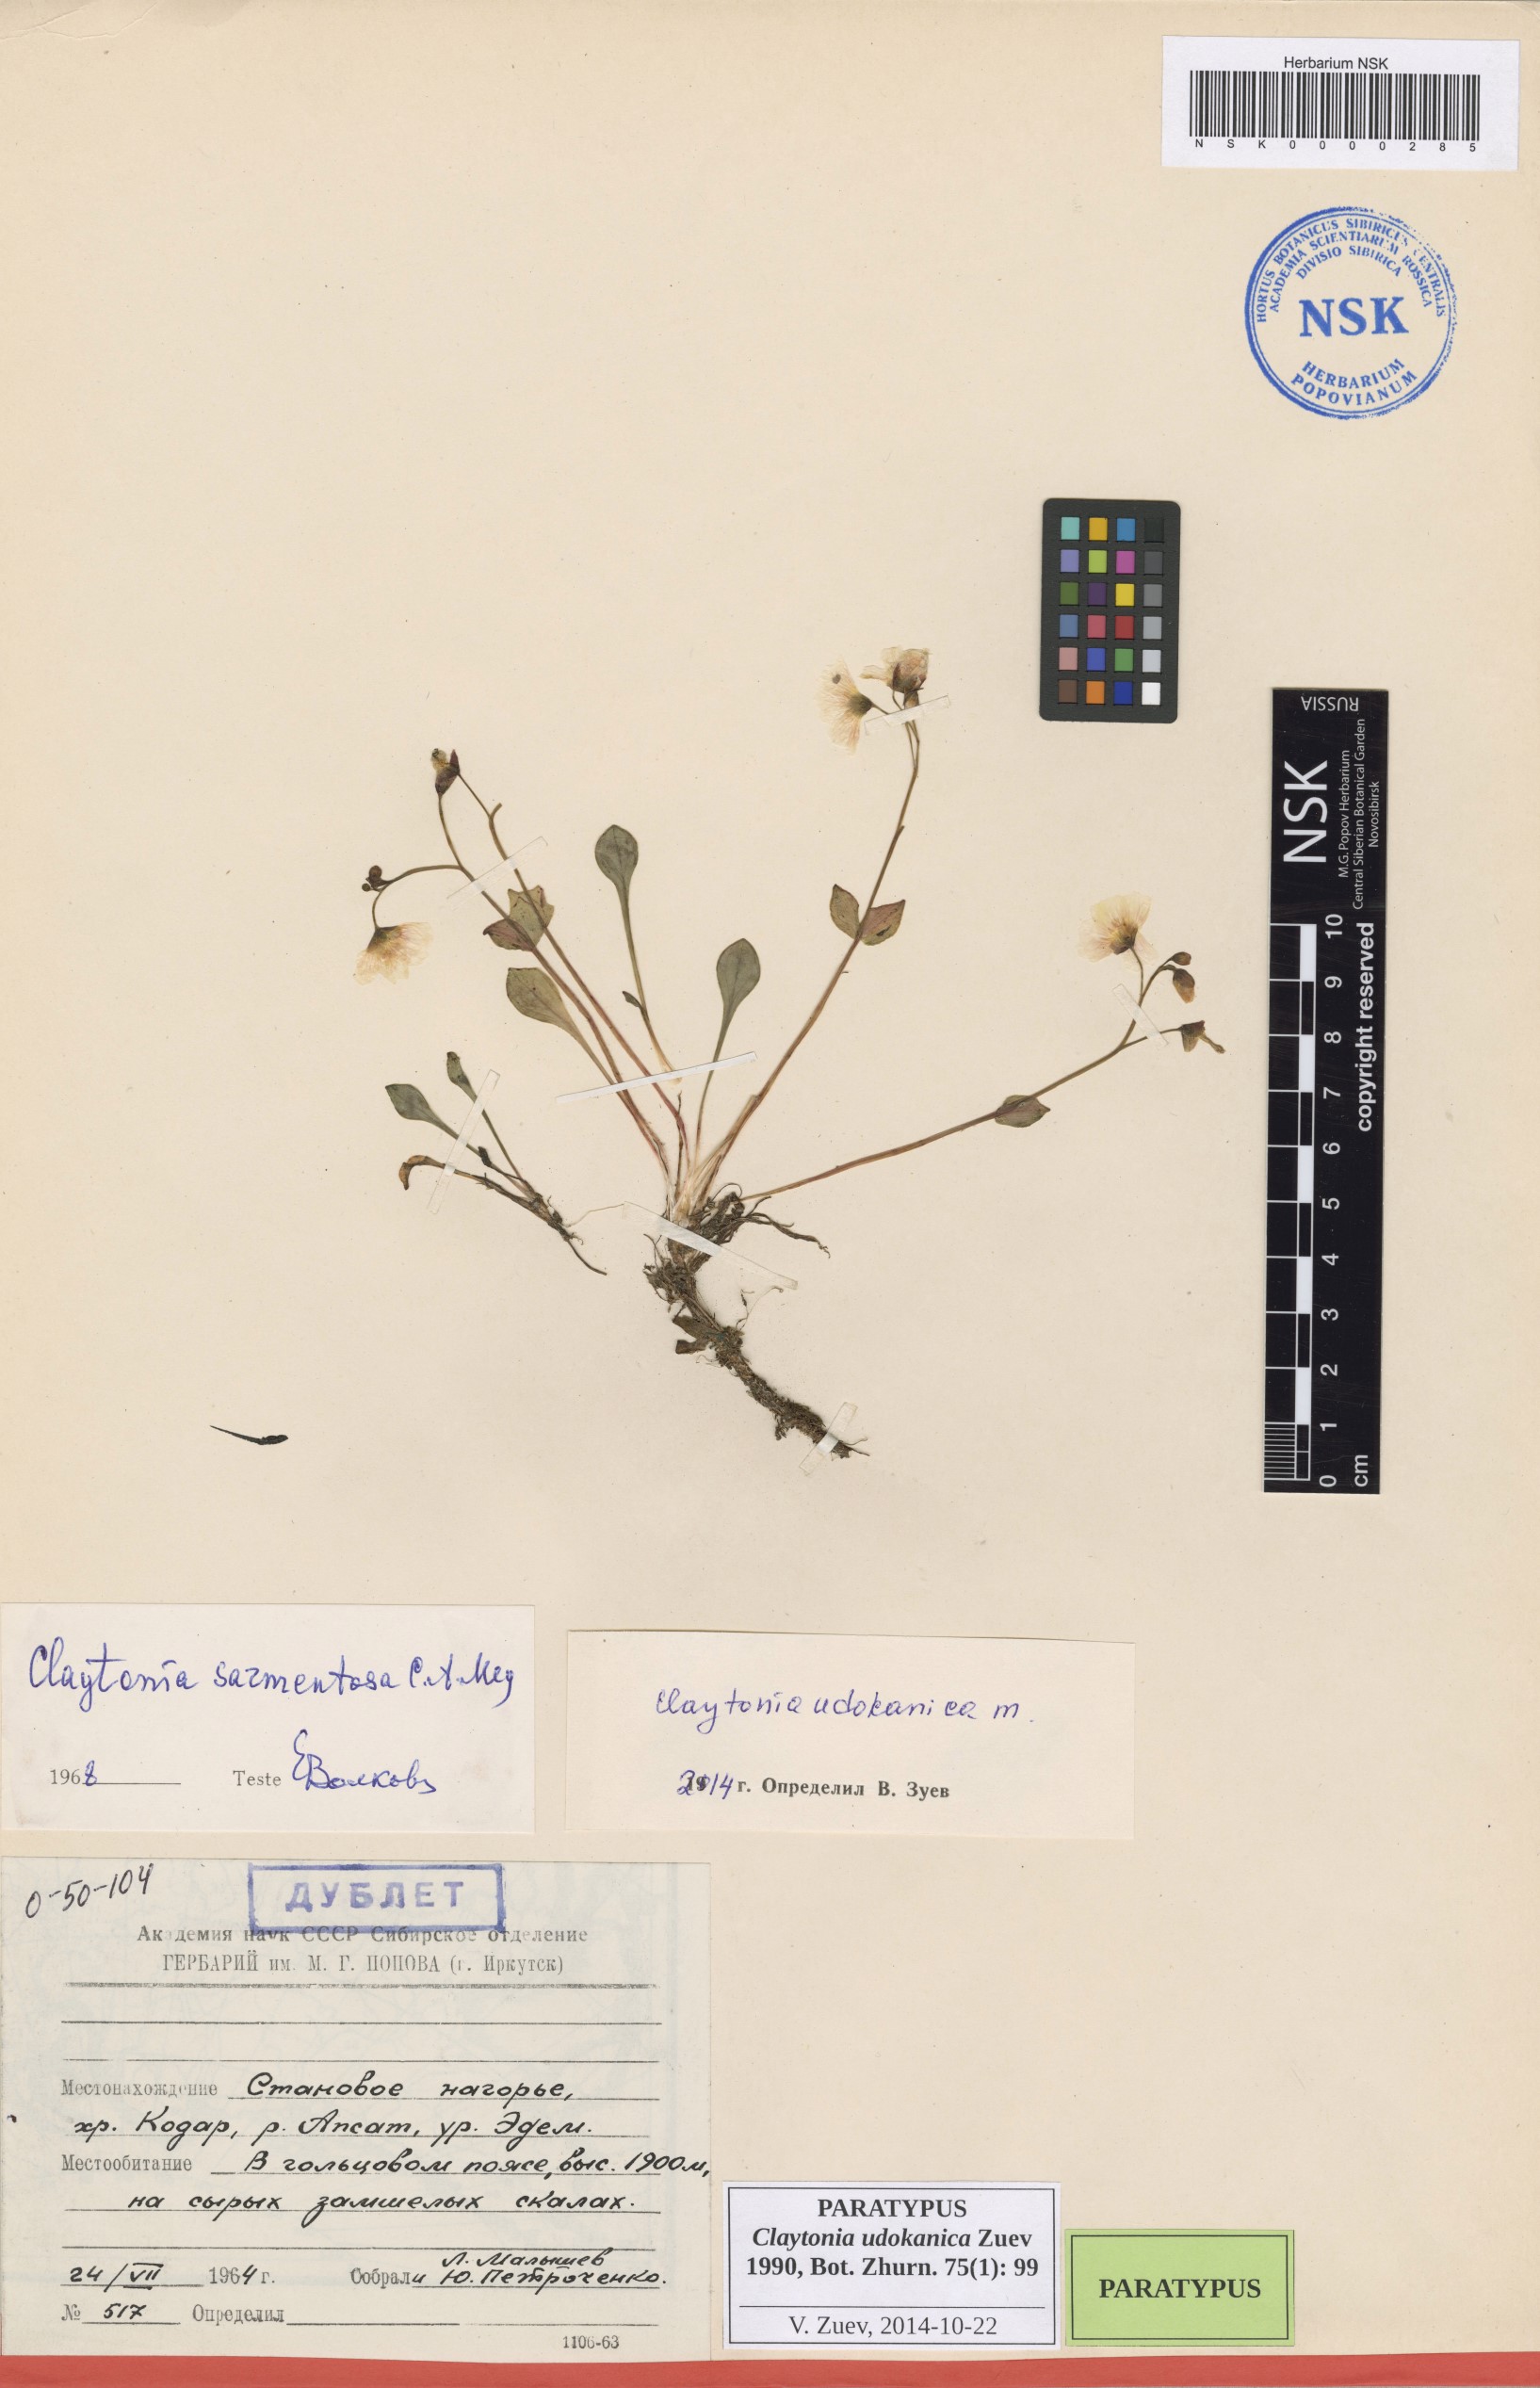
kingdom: Plantae
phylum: Tracheophyta
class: Magnoliopsida
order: Caryophyllales
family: Montiaceae
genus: Claytonia
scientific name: Claytonia udokanica
